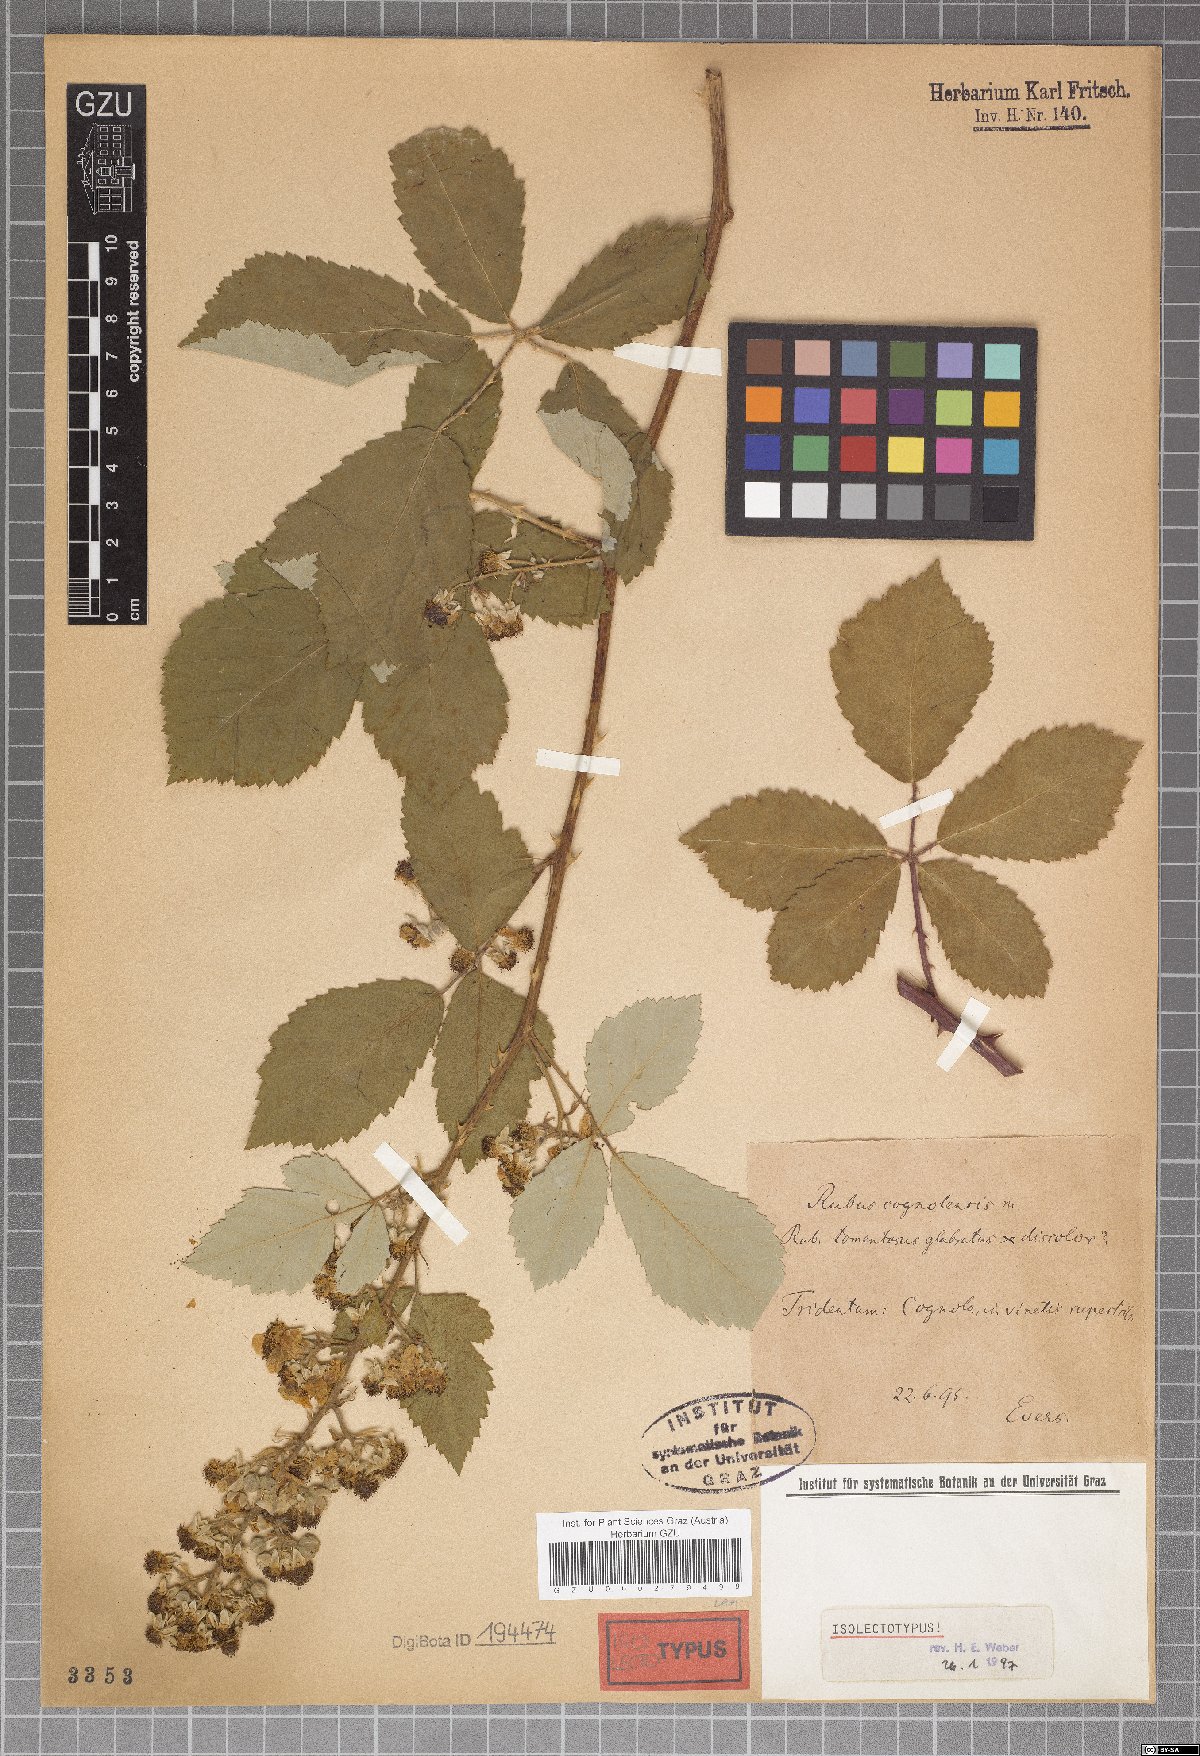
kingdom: Plantae
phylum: Tracheophyta
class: Magnoliopsida
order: Rosales
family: Rosaceae
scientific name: Rosaceae
